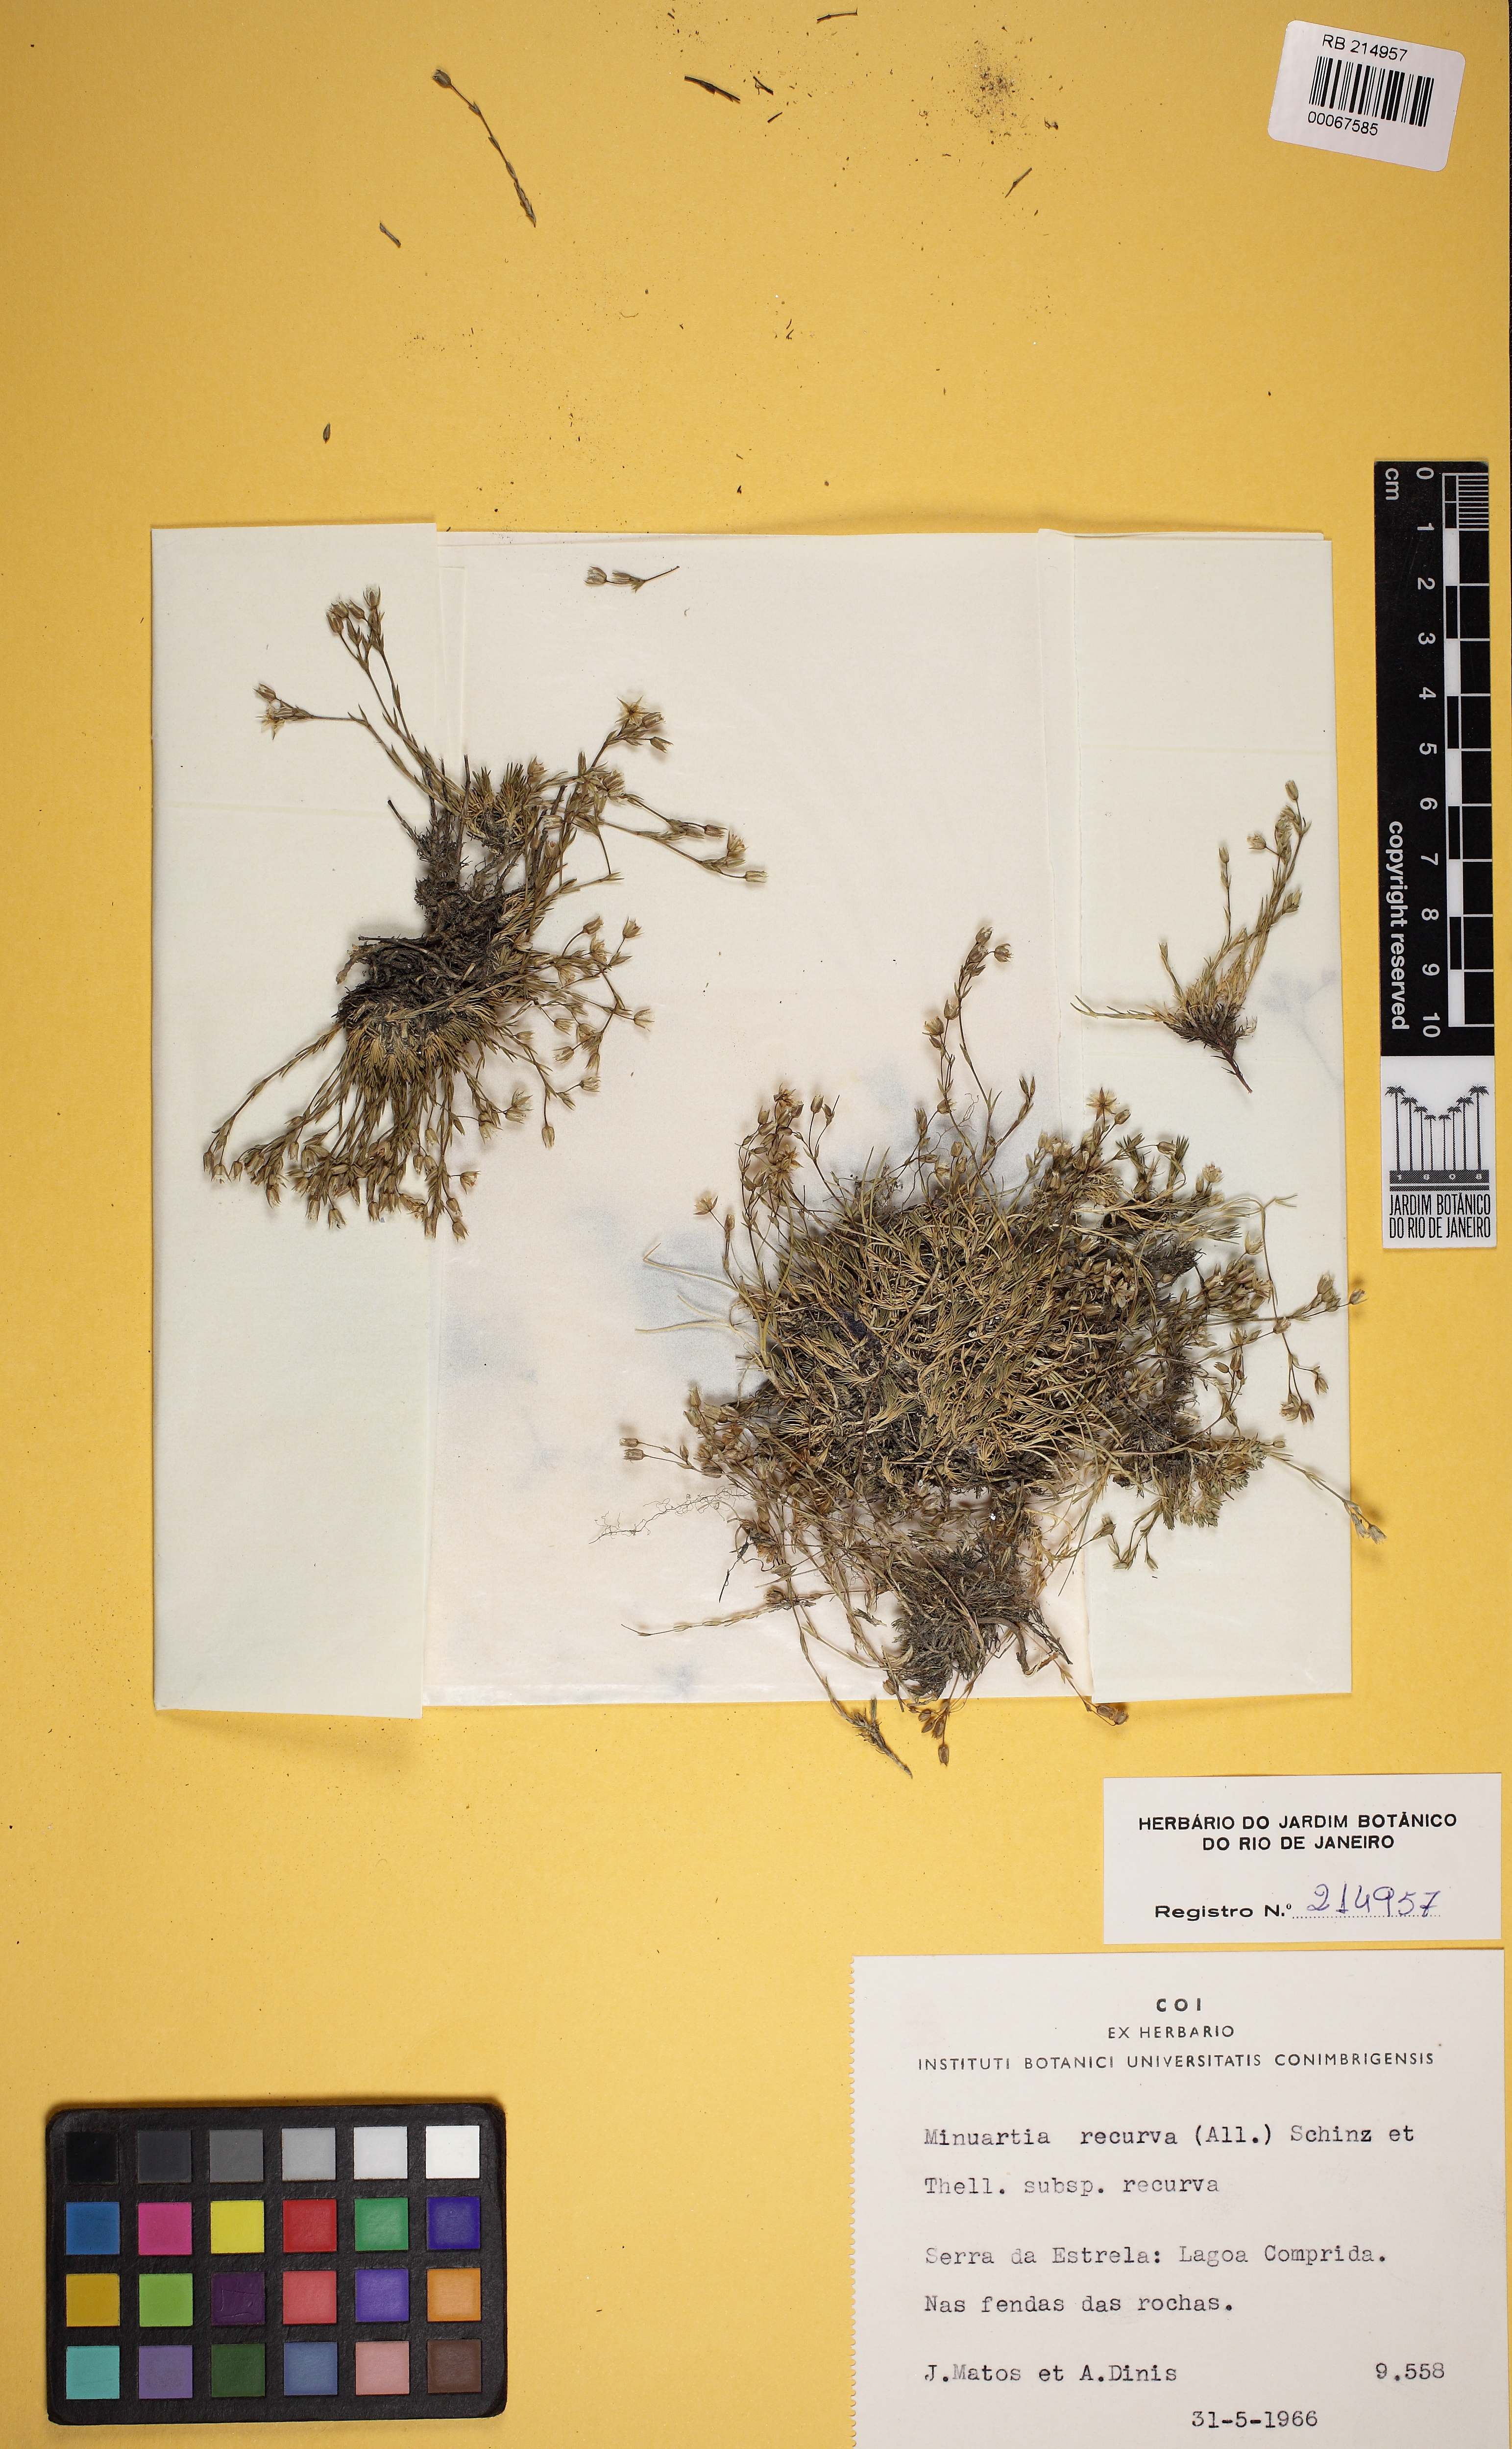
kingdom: Plantae
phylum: Tracheophyta
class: Magnoliopsida
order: Caryophyllales
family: Caryophyllaceae
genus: Minuartia
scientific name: Minuartia recurva
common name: Recurved sandwort
